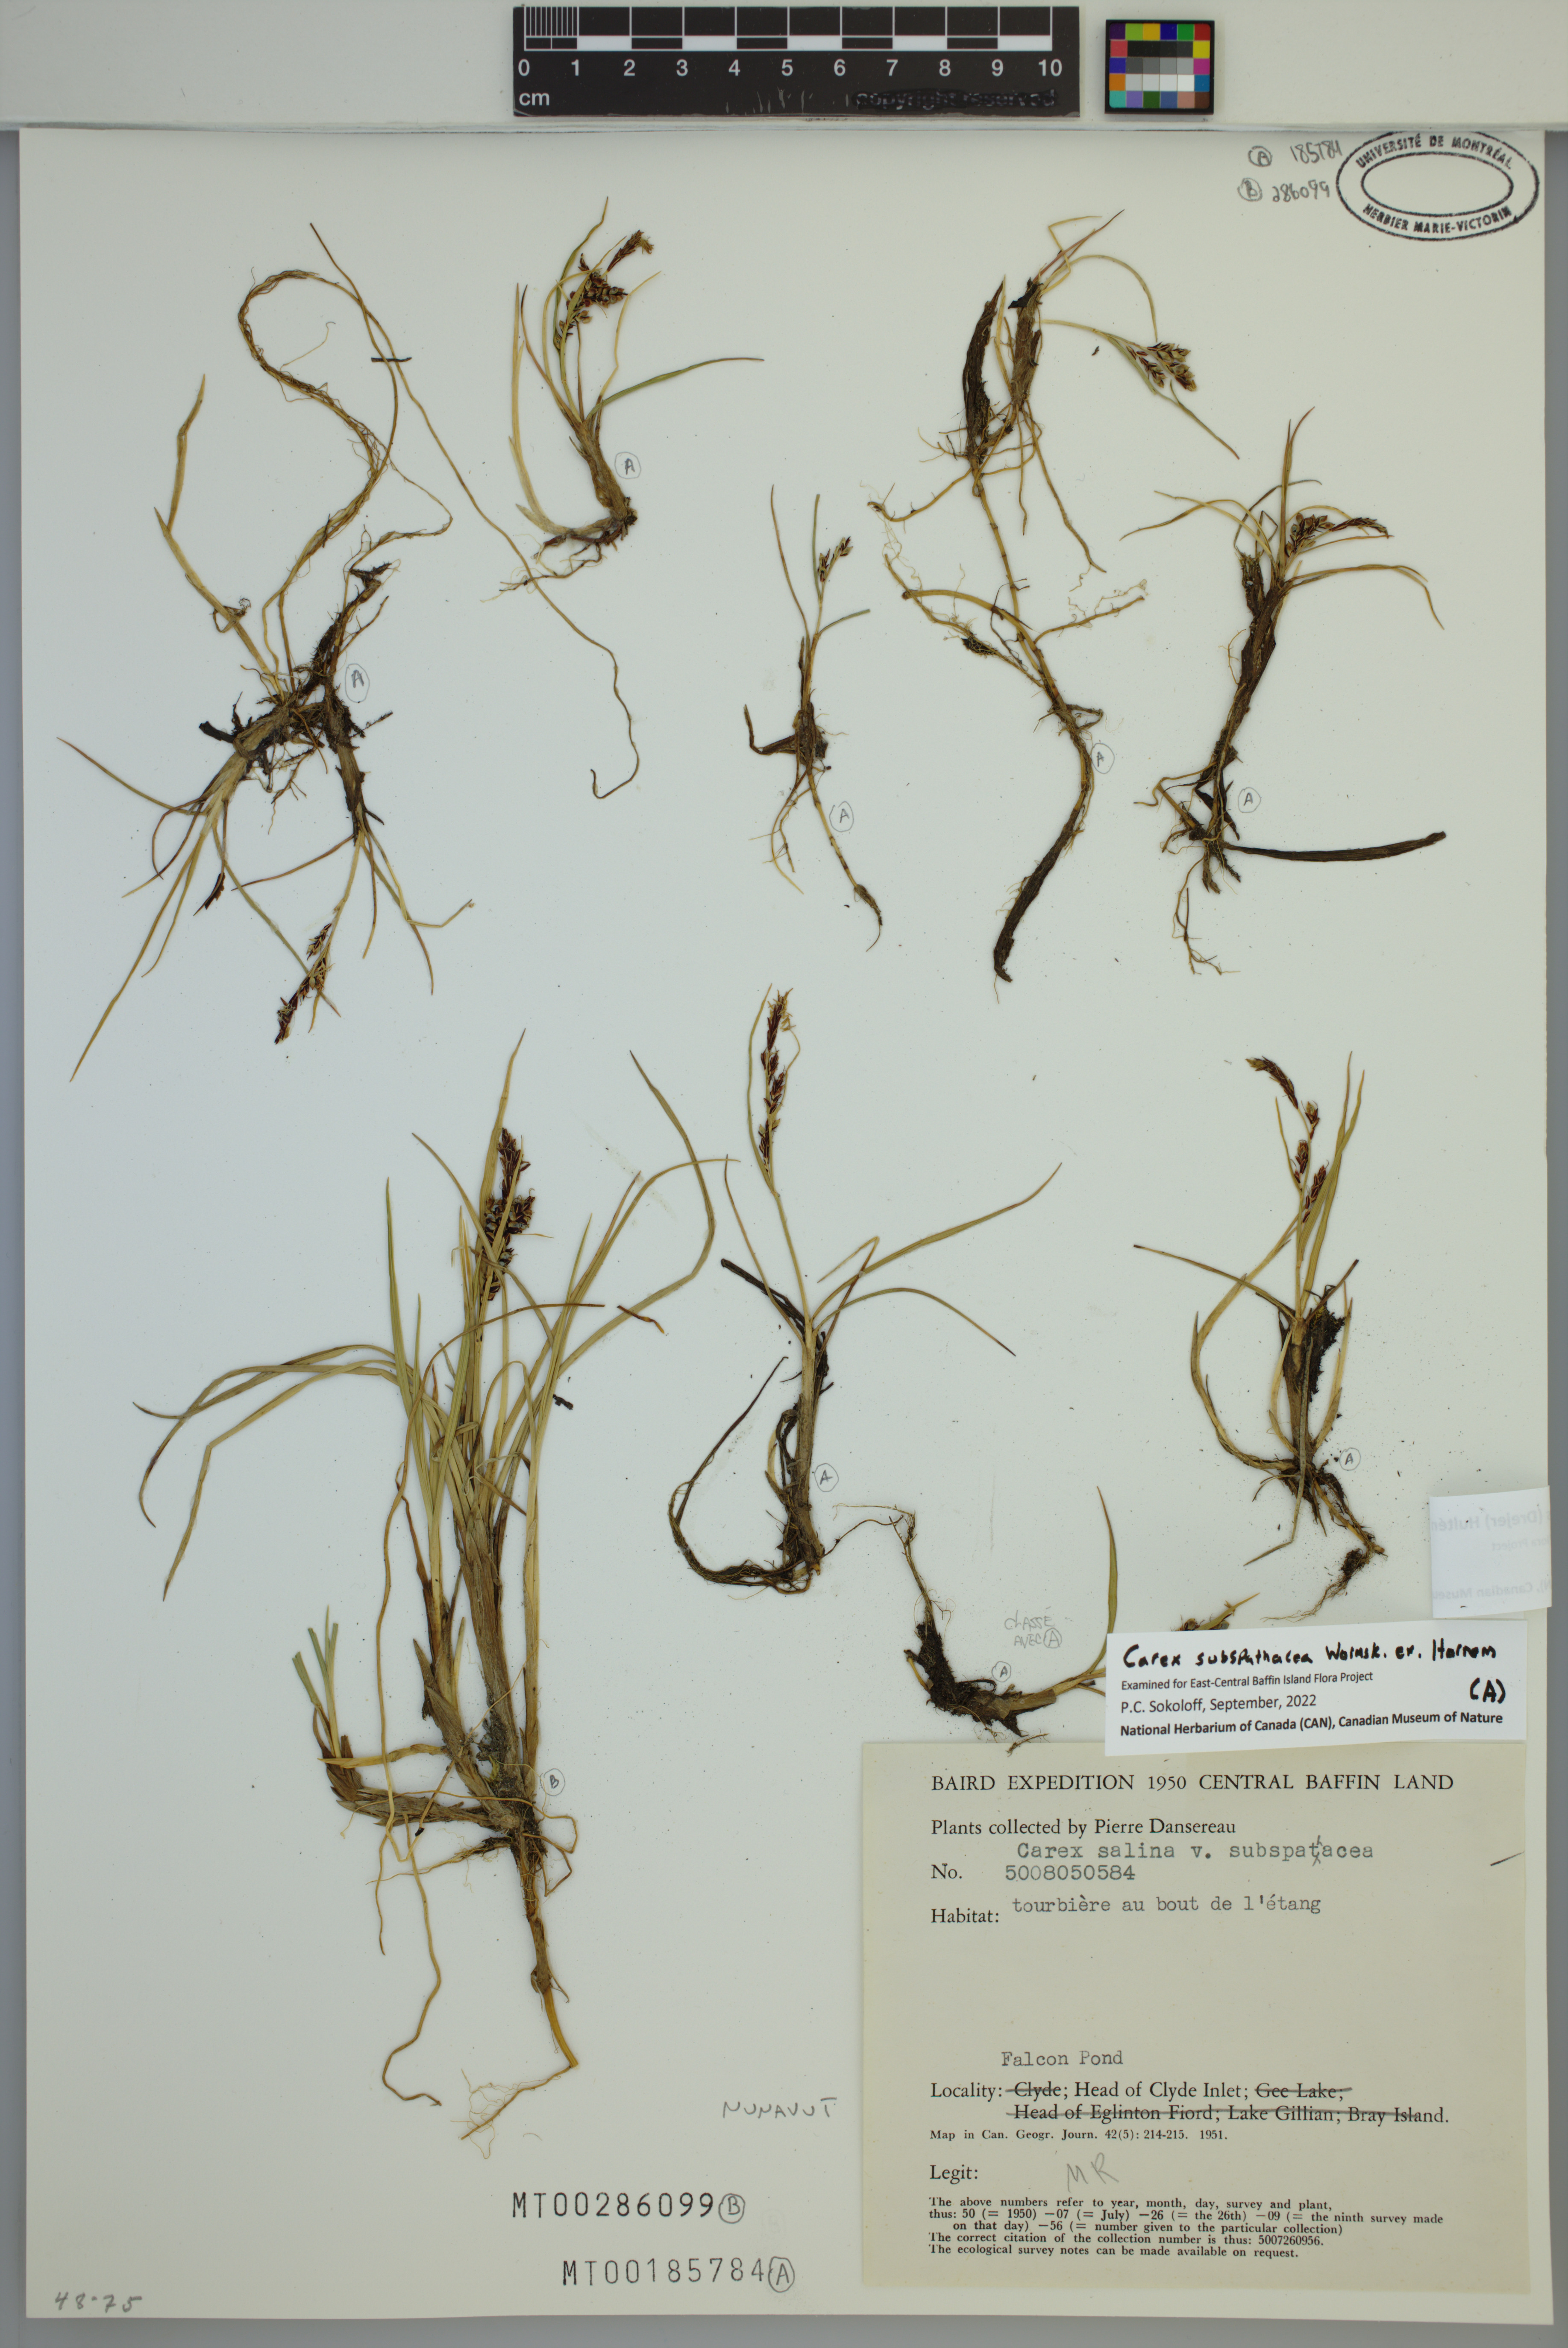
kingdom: Plantae
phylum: Tracheophyta
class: Liliopsida
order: Poales
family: Cyperaceae
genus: Carex
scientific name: Carex subspathacea
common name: Hoppner's sedge
